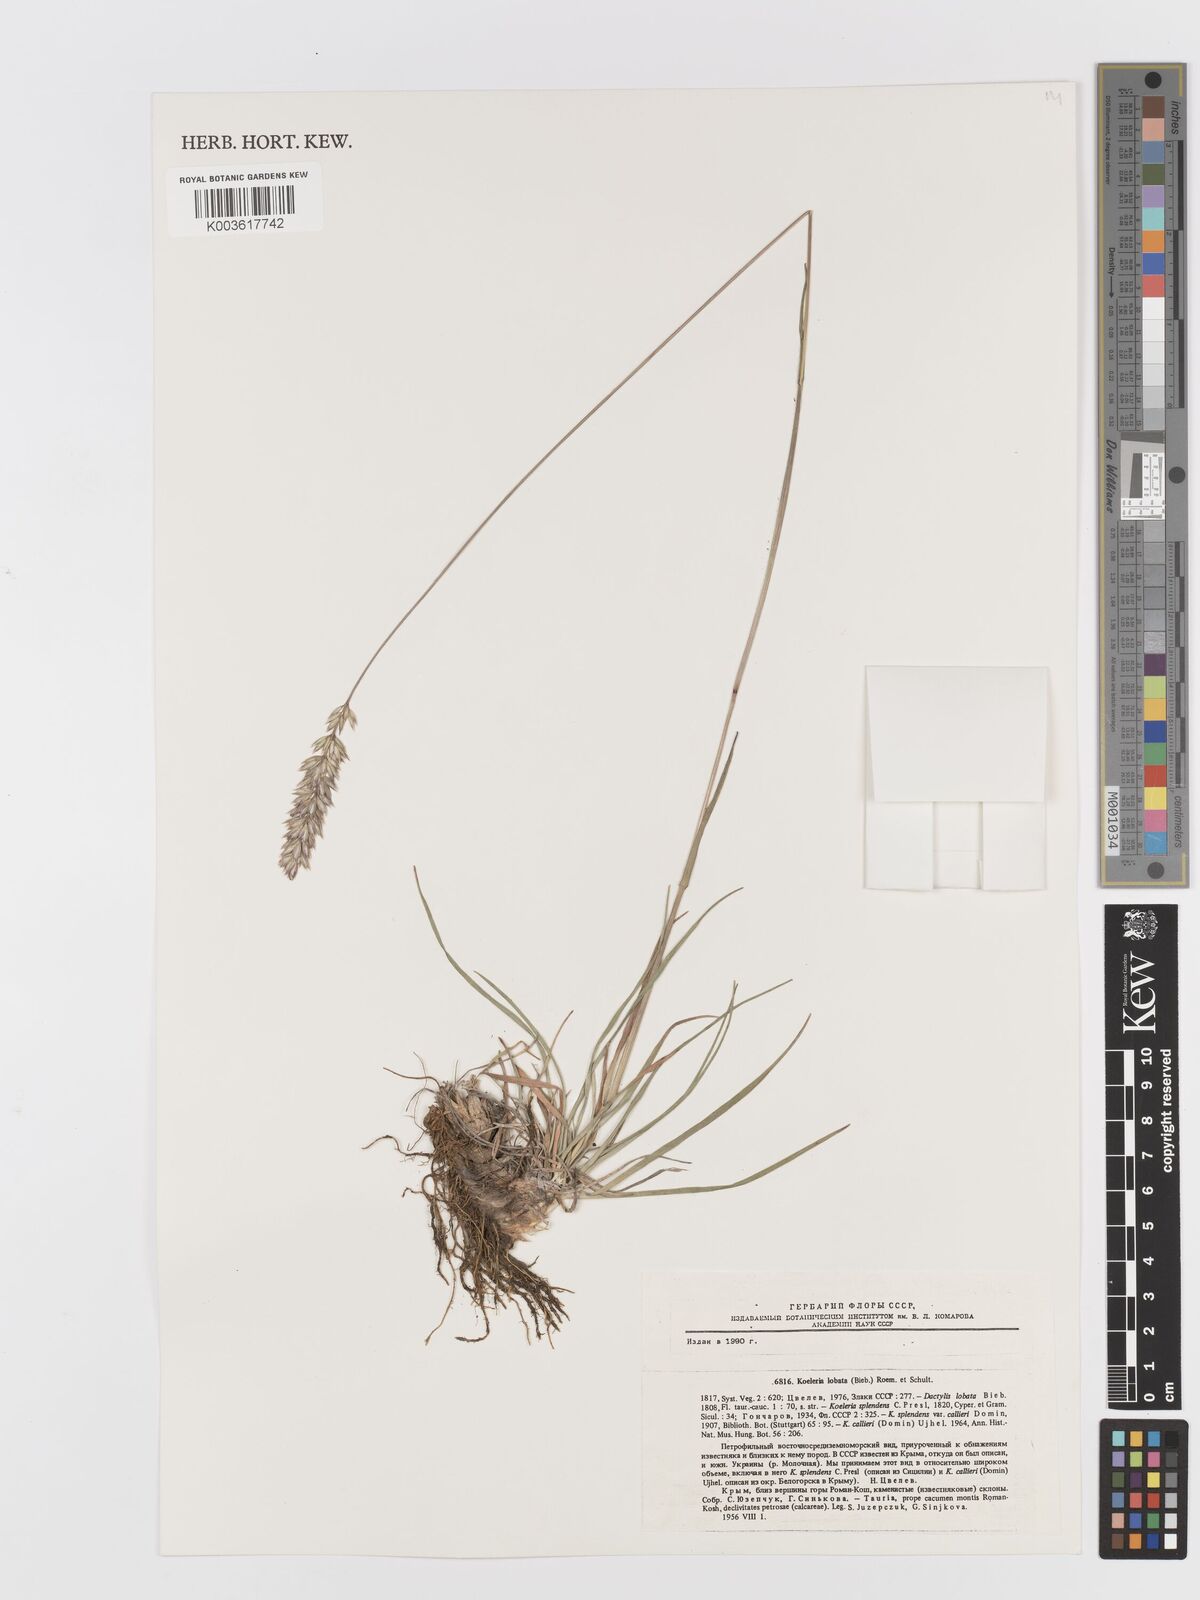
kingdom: Plantae
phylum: Tracheophyta
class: Liliopsida
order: Poales
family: Poaceae
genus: Koeleria
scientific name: Koeleria brevis
